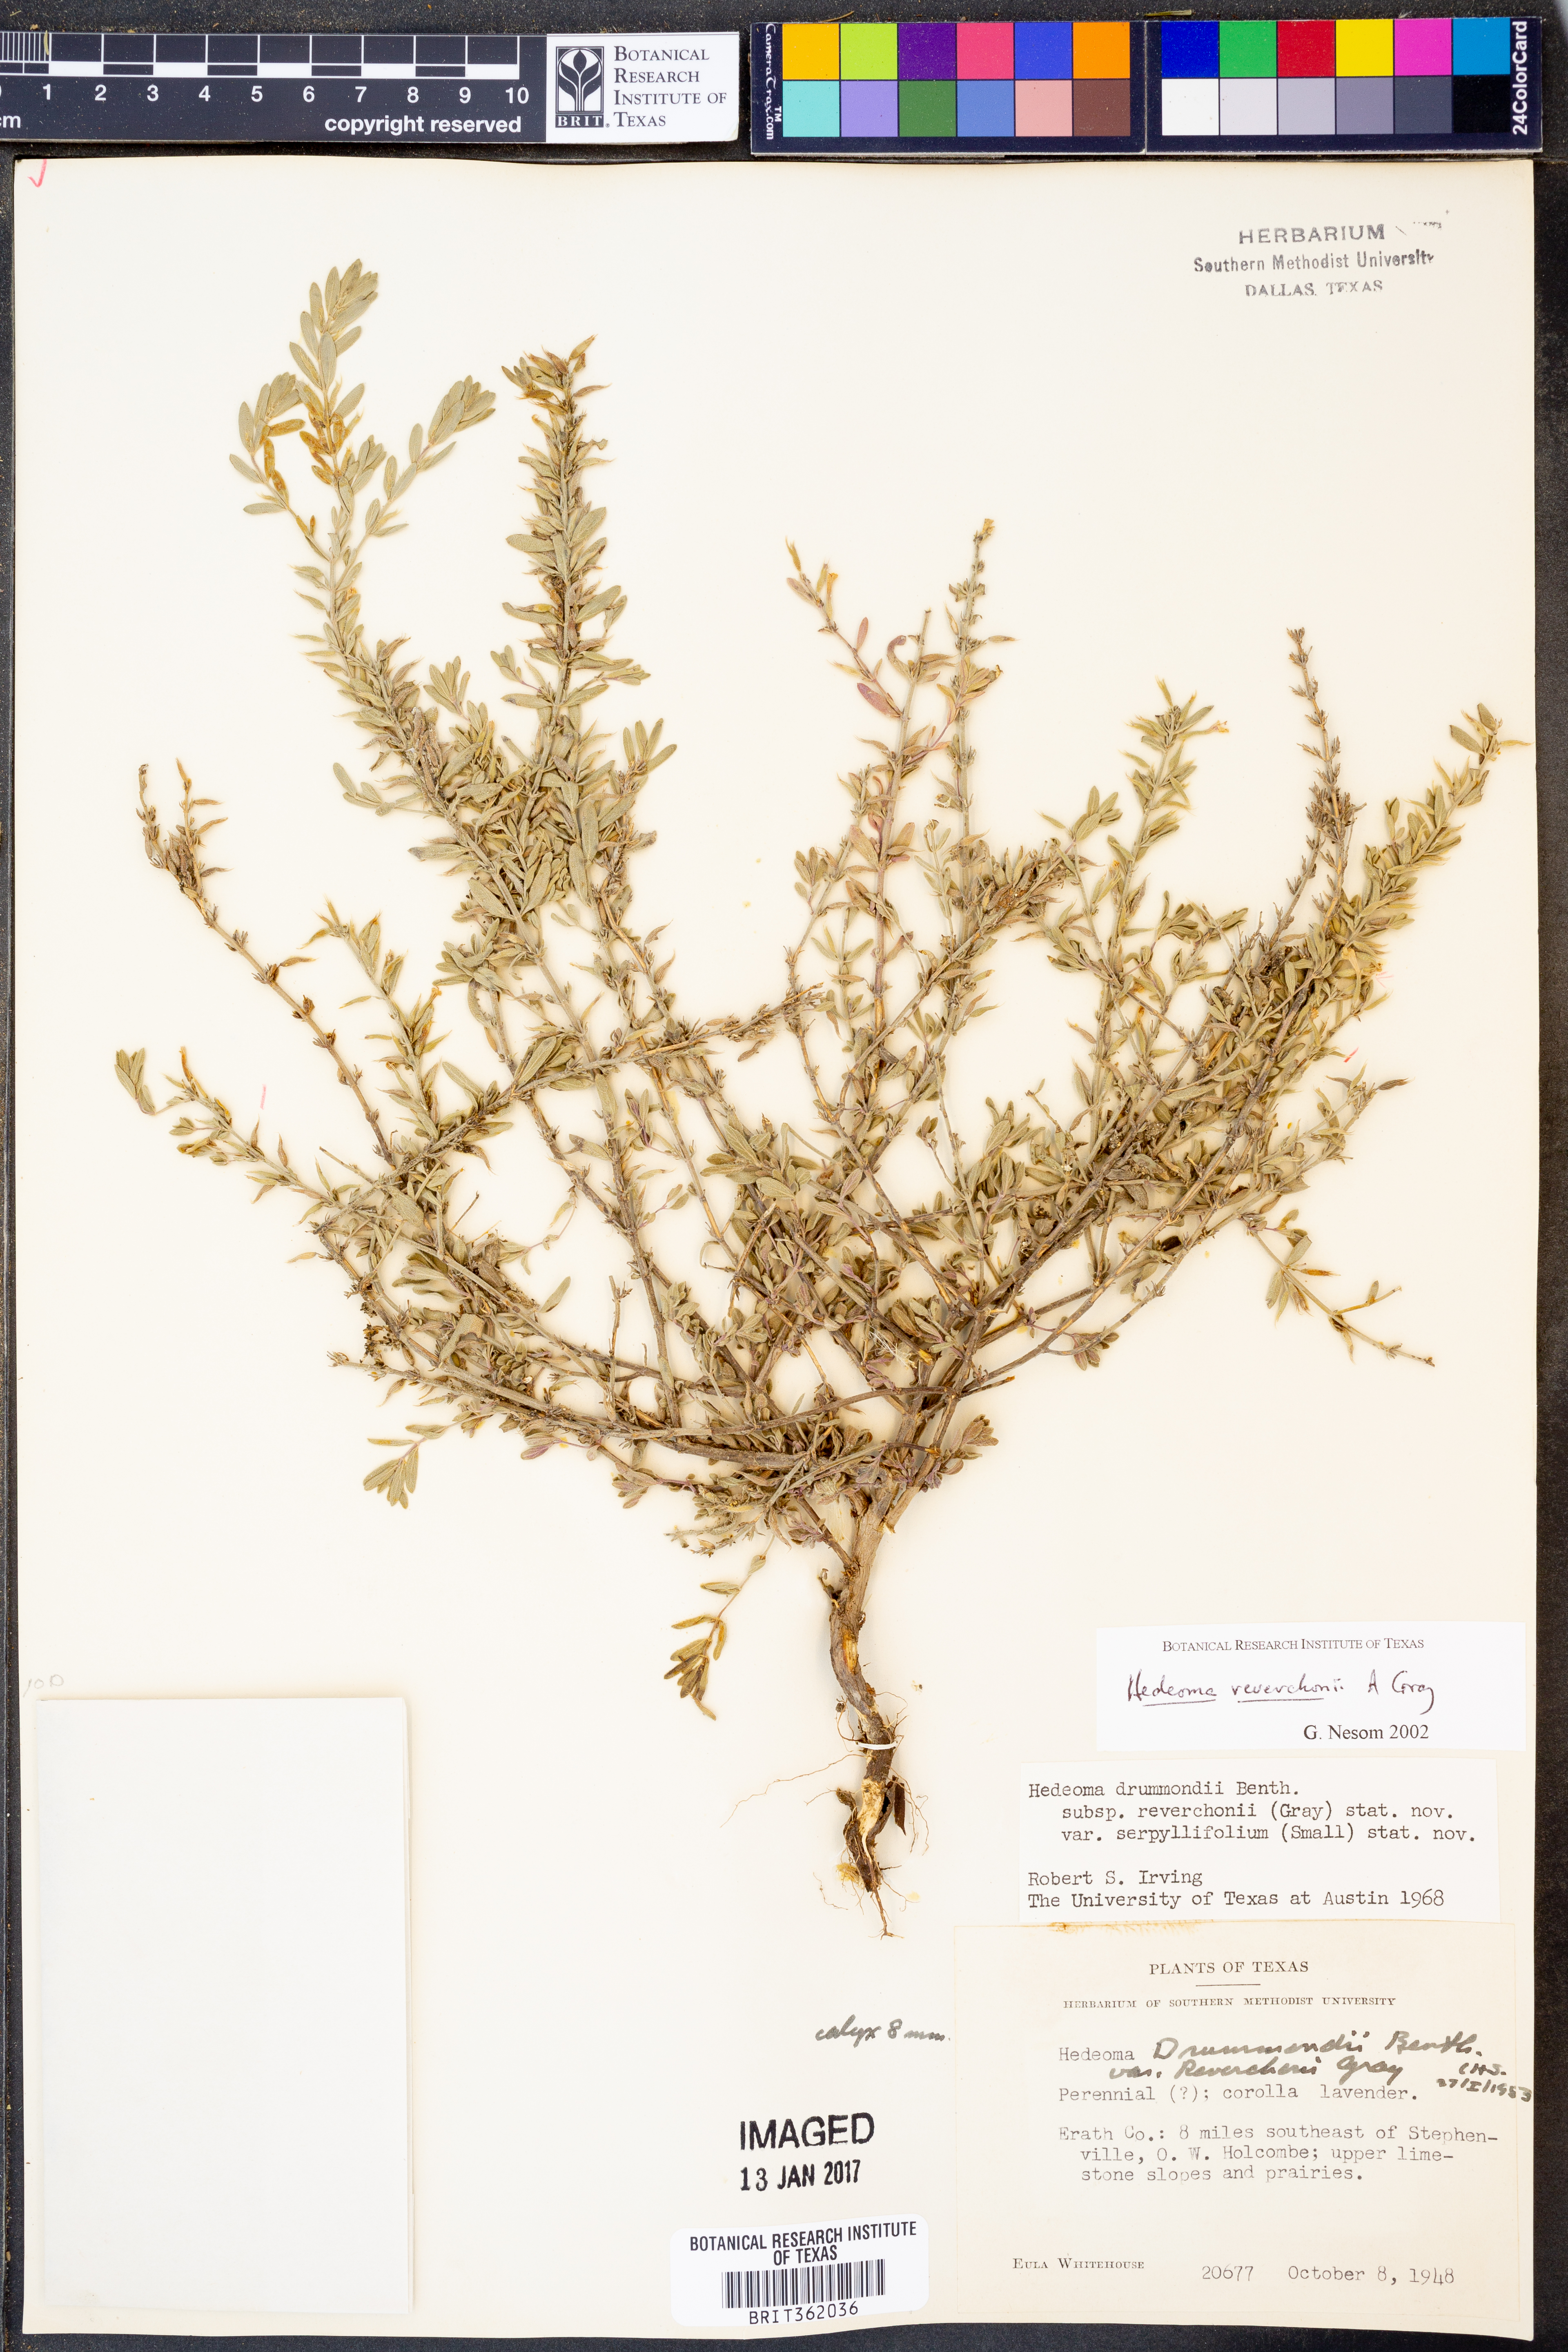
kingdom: Plantae
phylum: Tracheophyta
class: Magnoliopsida
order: Lamiales
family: Lamiaceae
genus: Hedeoma
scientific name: Hedeoma reverchonii
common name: Reverchon's false penny-royal
